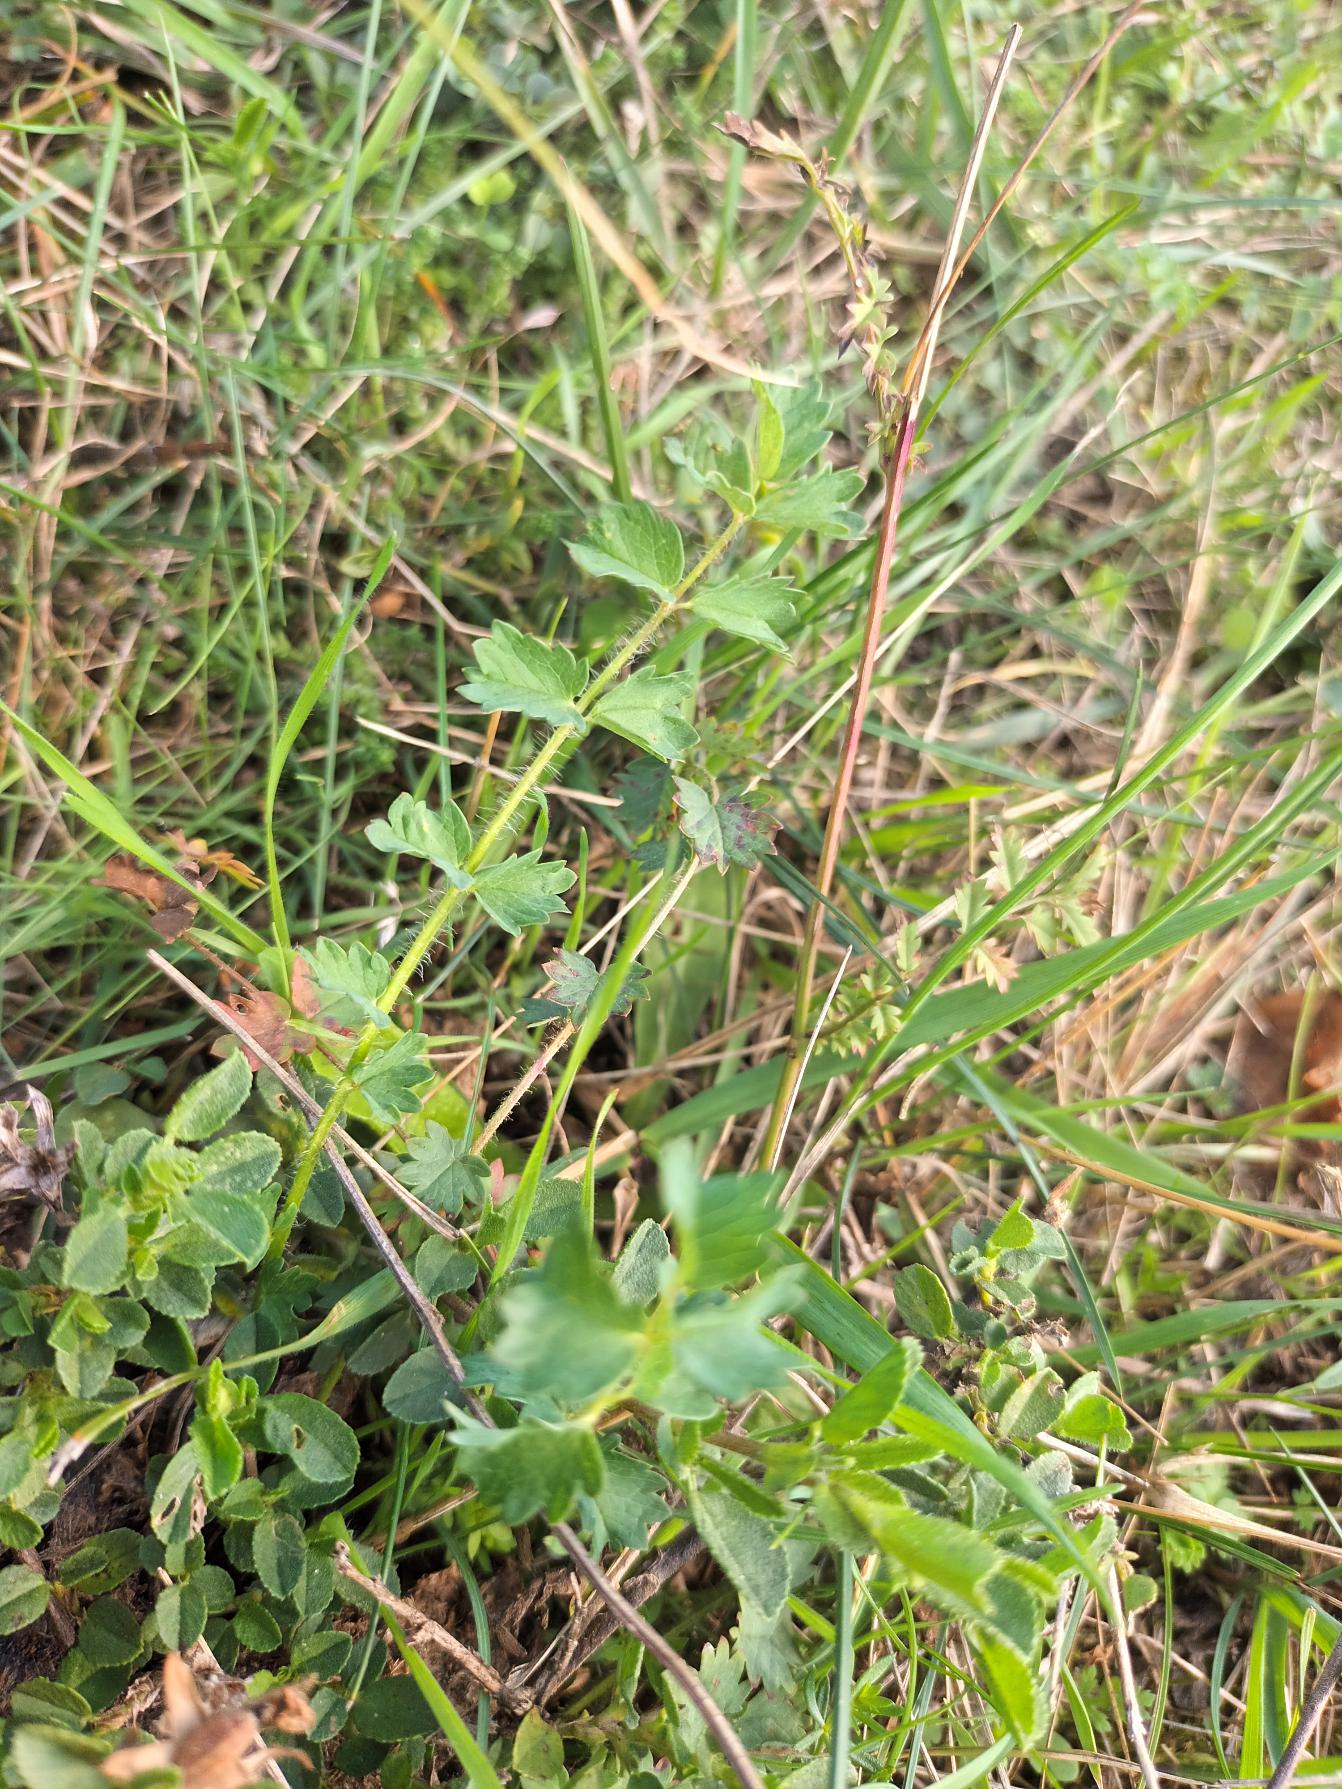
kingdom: Plantae
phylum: Tracheophyta
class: Magnoliopsida
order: Rosales
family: Rosaceae
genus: Poterium
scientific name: Poterium sanguisorba
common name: Vingefrøet bibernelle
